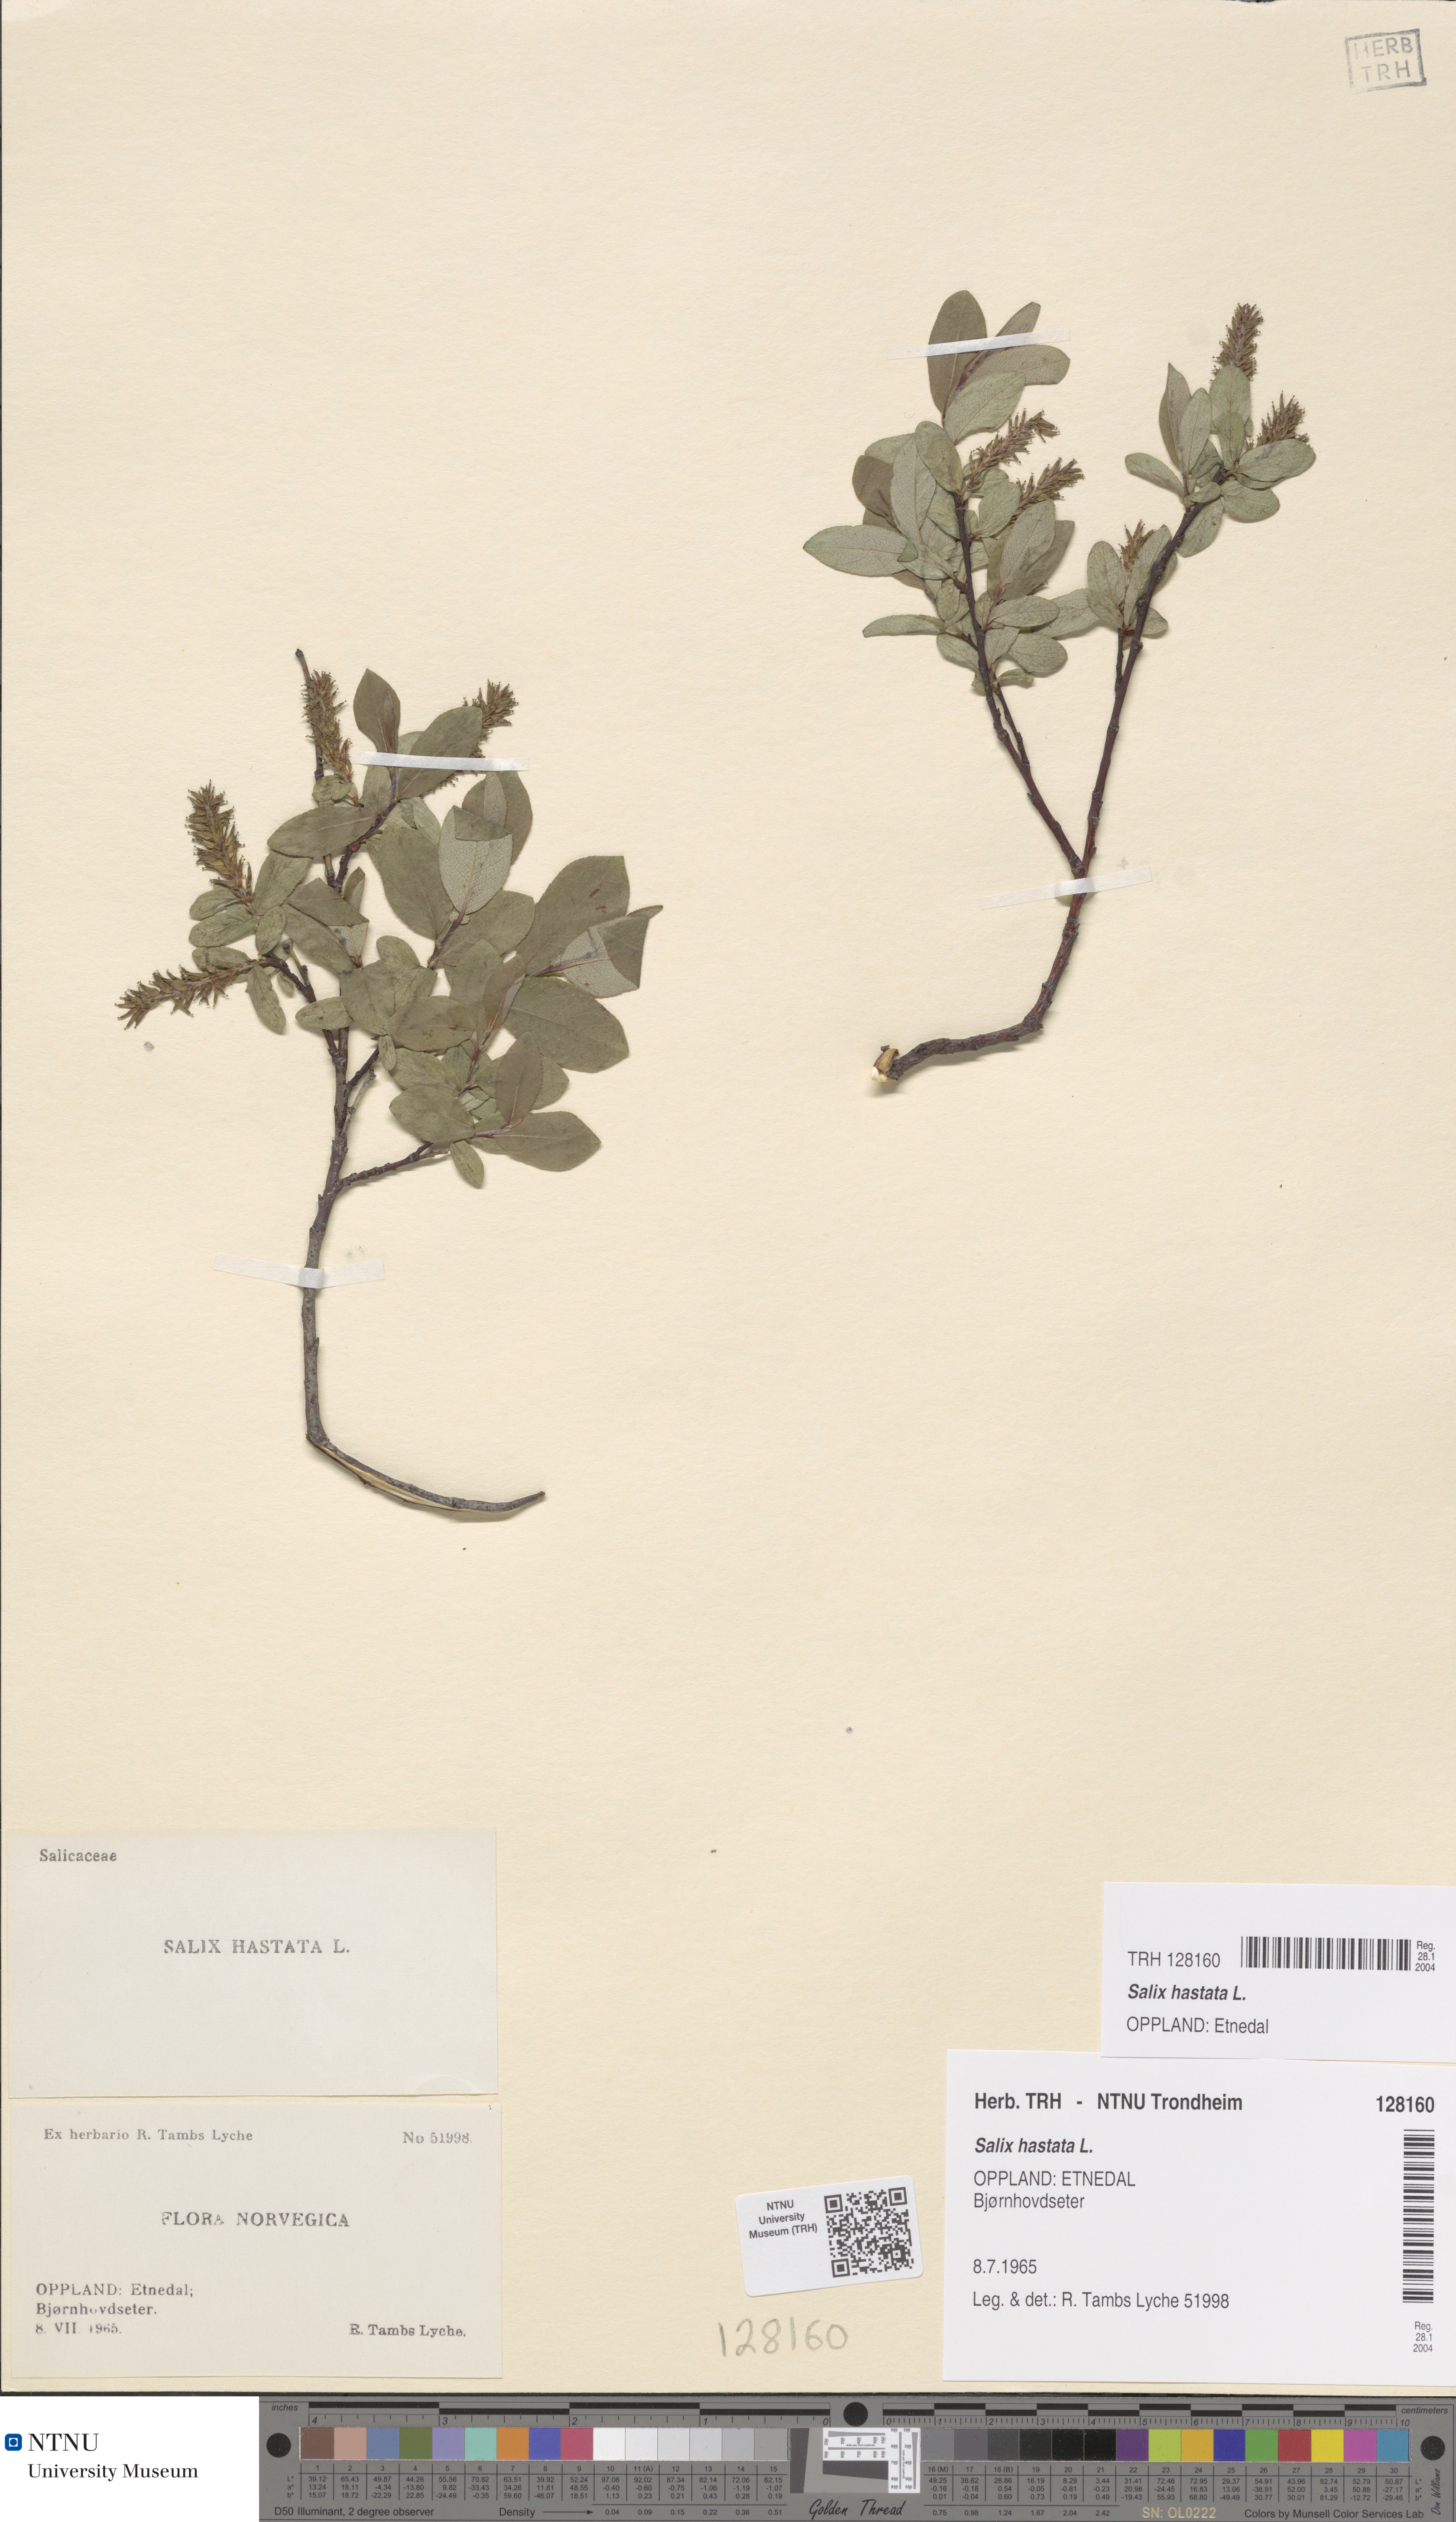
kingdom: Plantae
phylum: Tracheophyta
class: Magnoliopsida
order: Malpighiales
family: Salicaceae
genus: Salix
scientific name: Salix hastata
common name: Halberd willow
